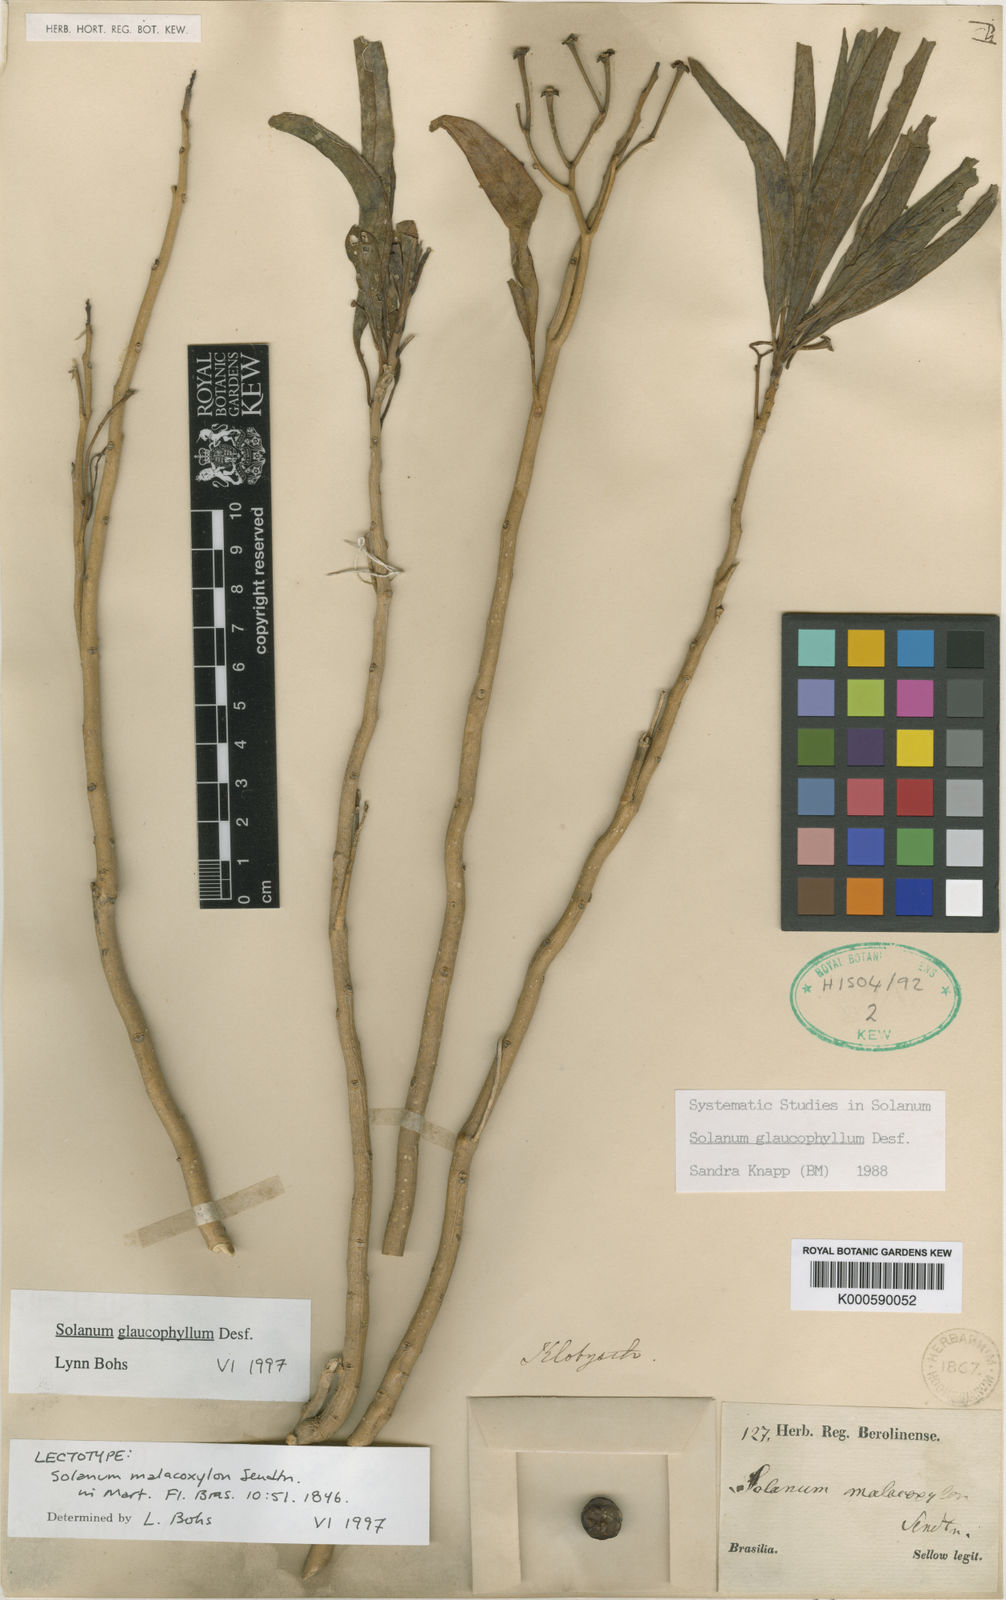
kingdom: Plantae
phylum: Tracheophyta
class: Magnoliopsida
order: Solanales
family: Solanaceae
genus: Solanum
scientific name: Solanum glaucophyllum
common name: Waxyleaf nightshade
